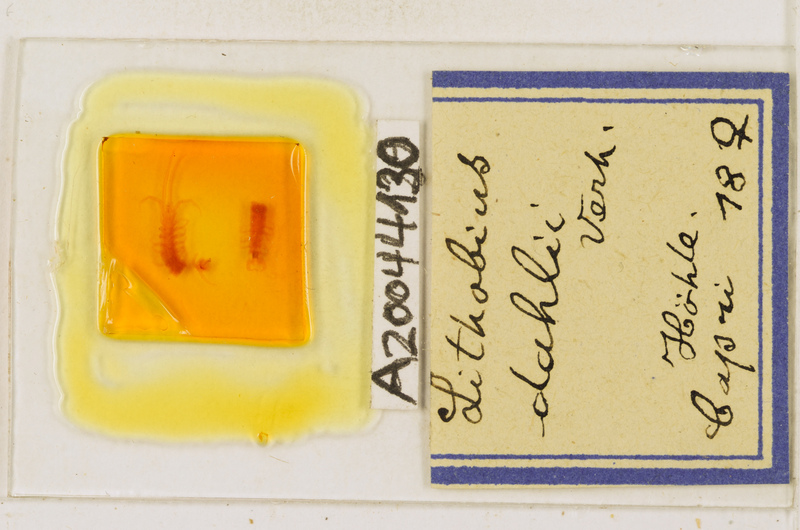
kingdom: Animalia
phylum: Arthropoda
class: Chilopoda
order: Lithobiomorpha
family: Lithobiidae
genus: Lithobius
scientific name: Lithobius dahlii
